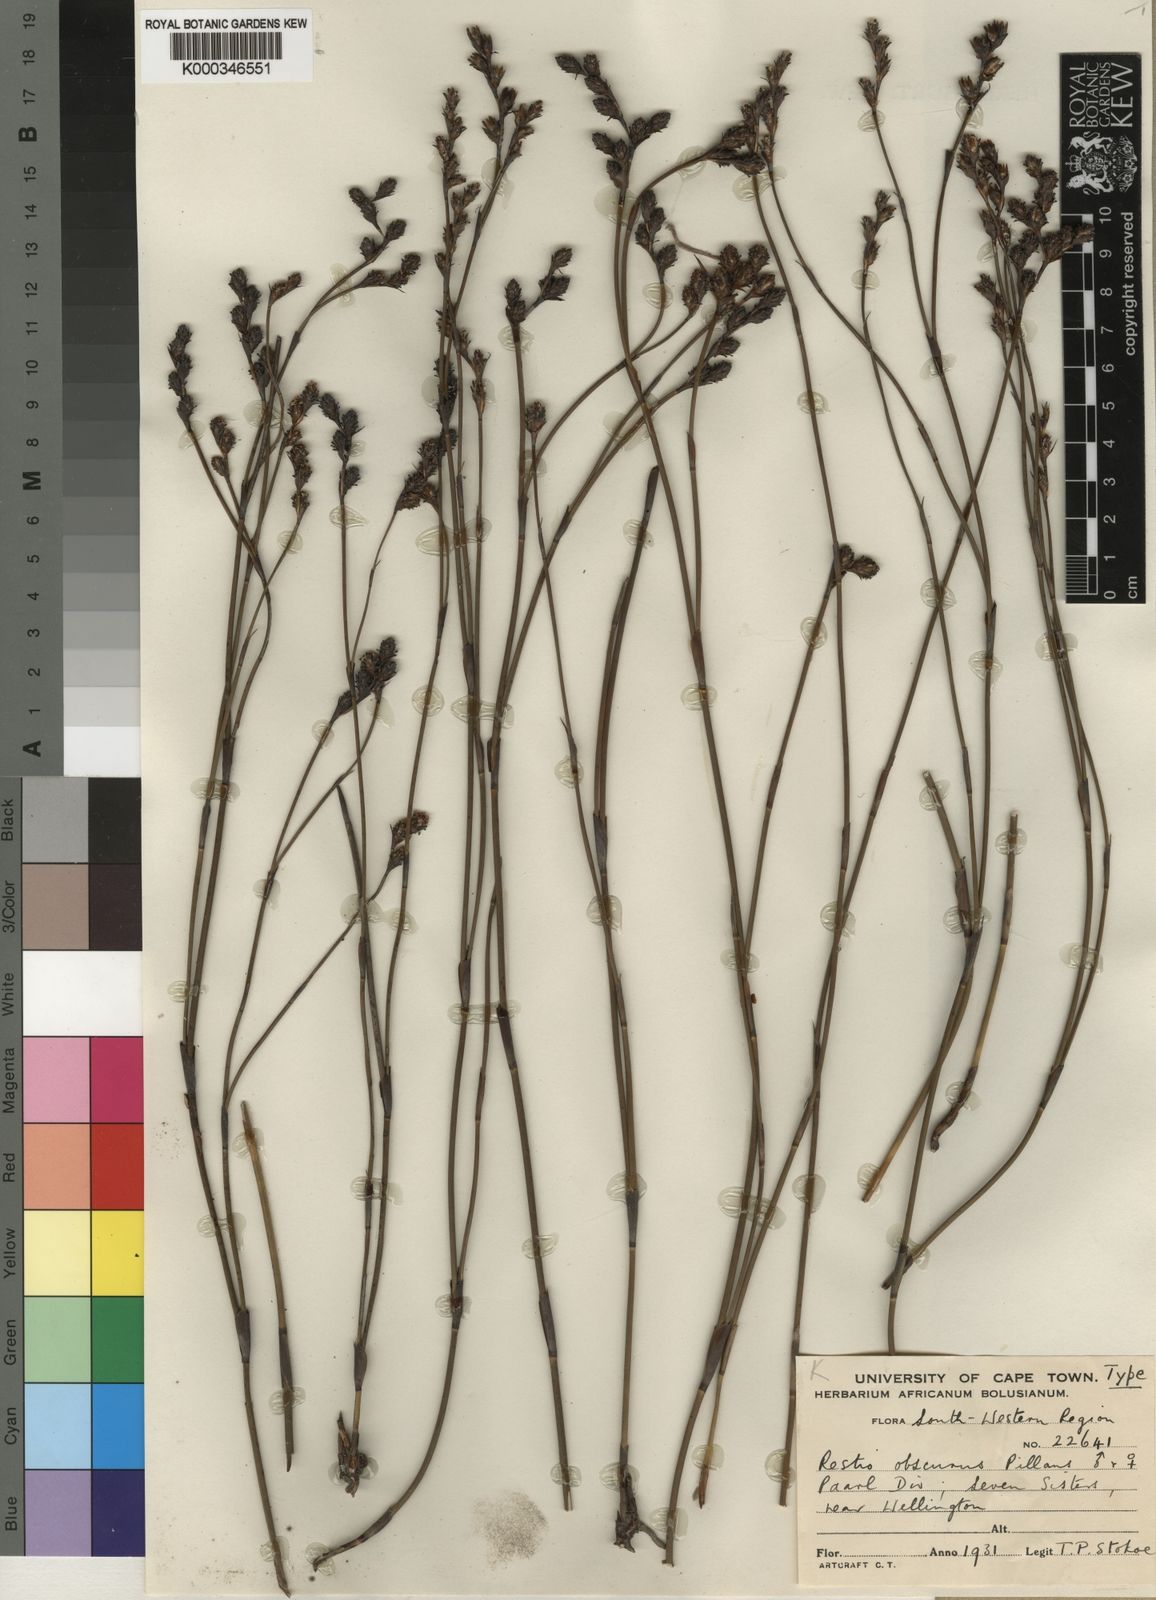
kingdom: Plantae
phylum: Tracheophyta
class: Liliopsida
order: Poales
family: Restionaceae
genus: Restio
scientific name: Restio obscurus
